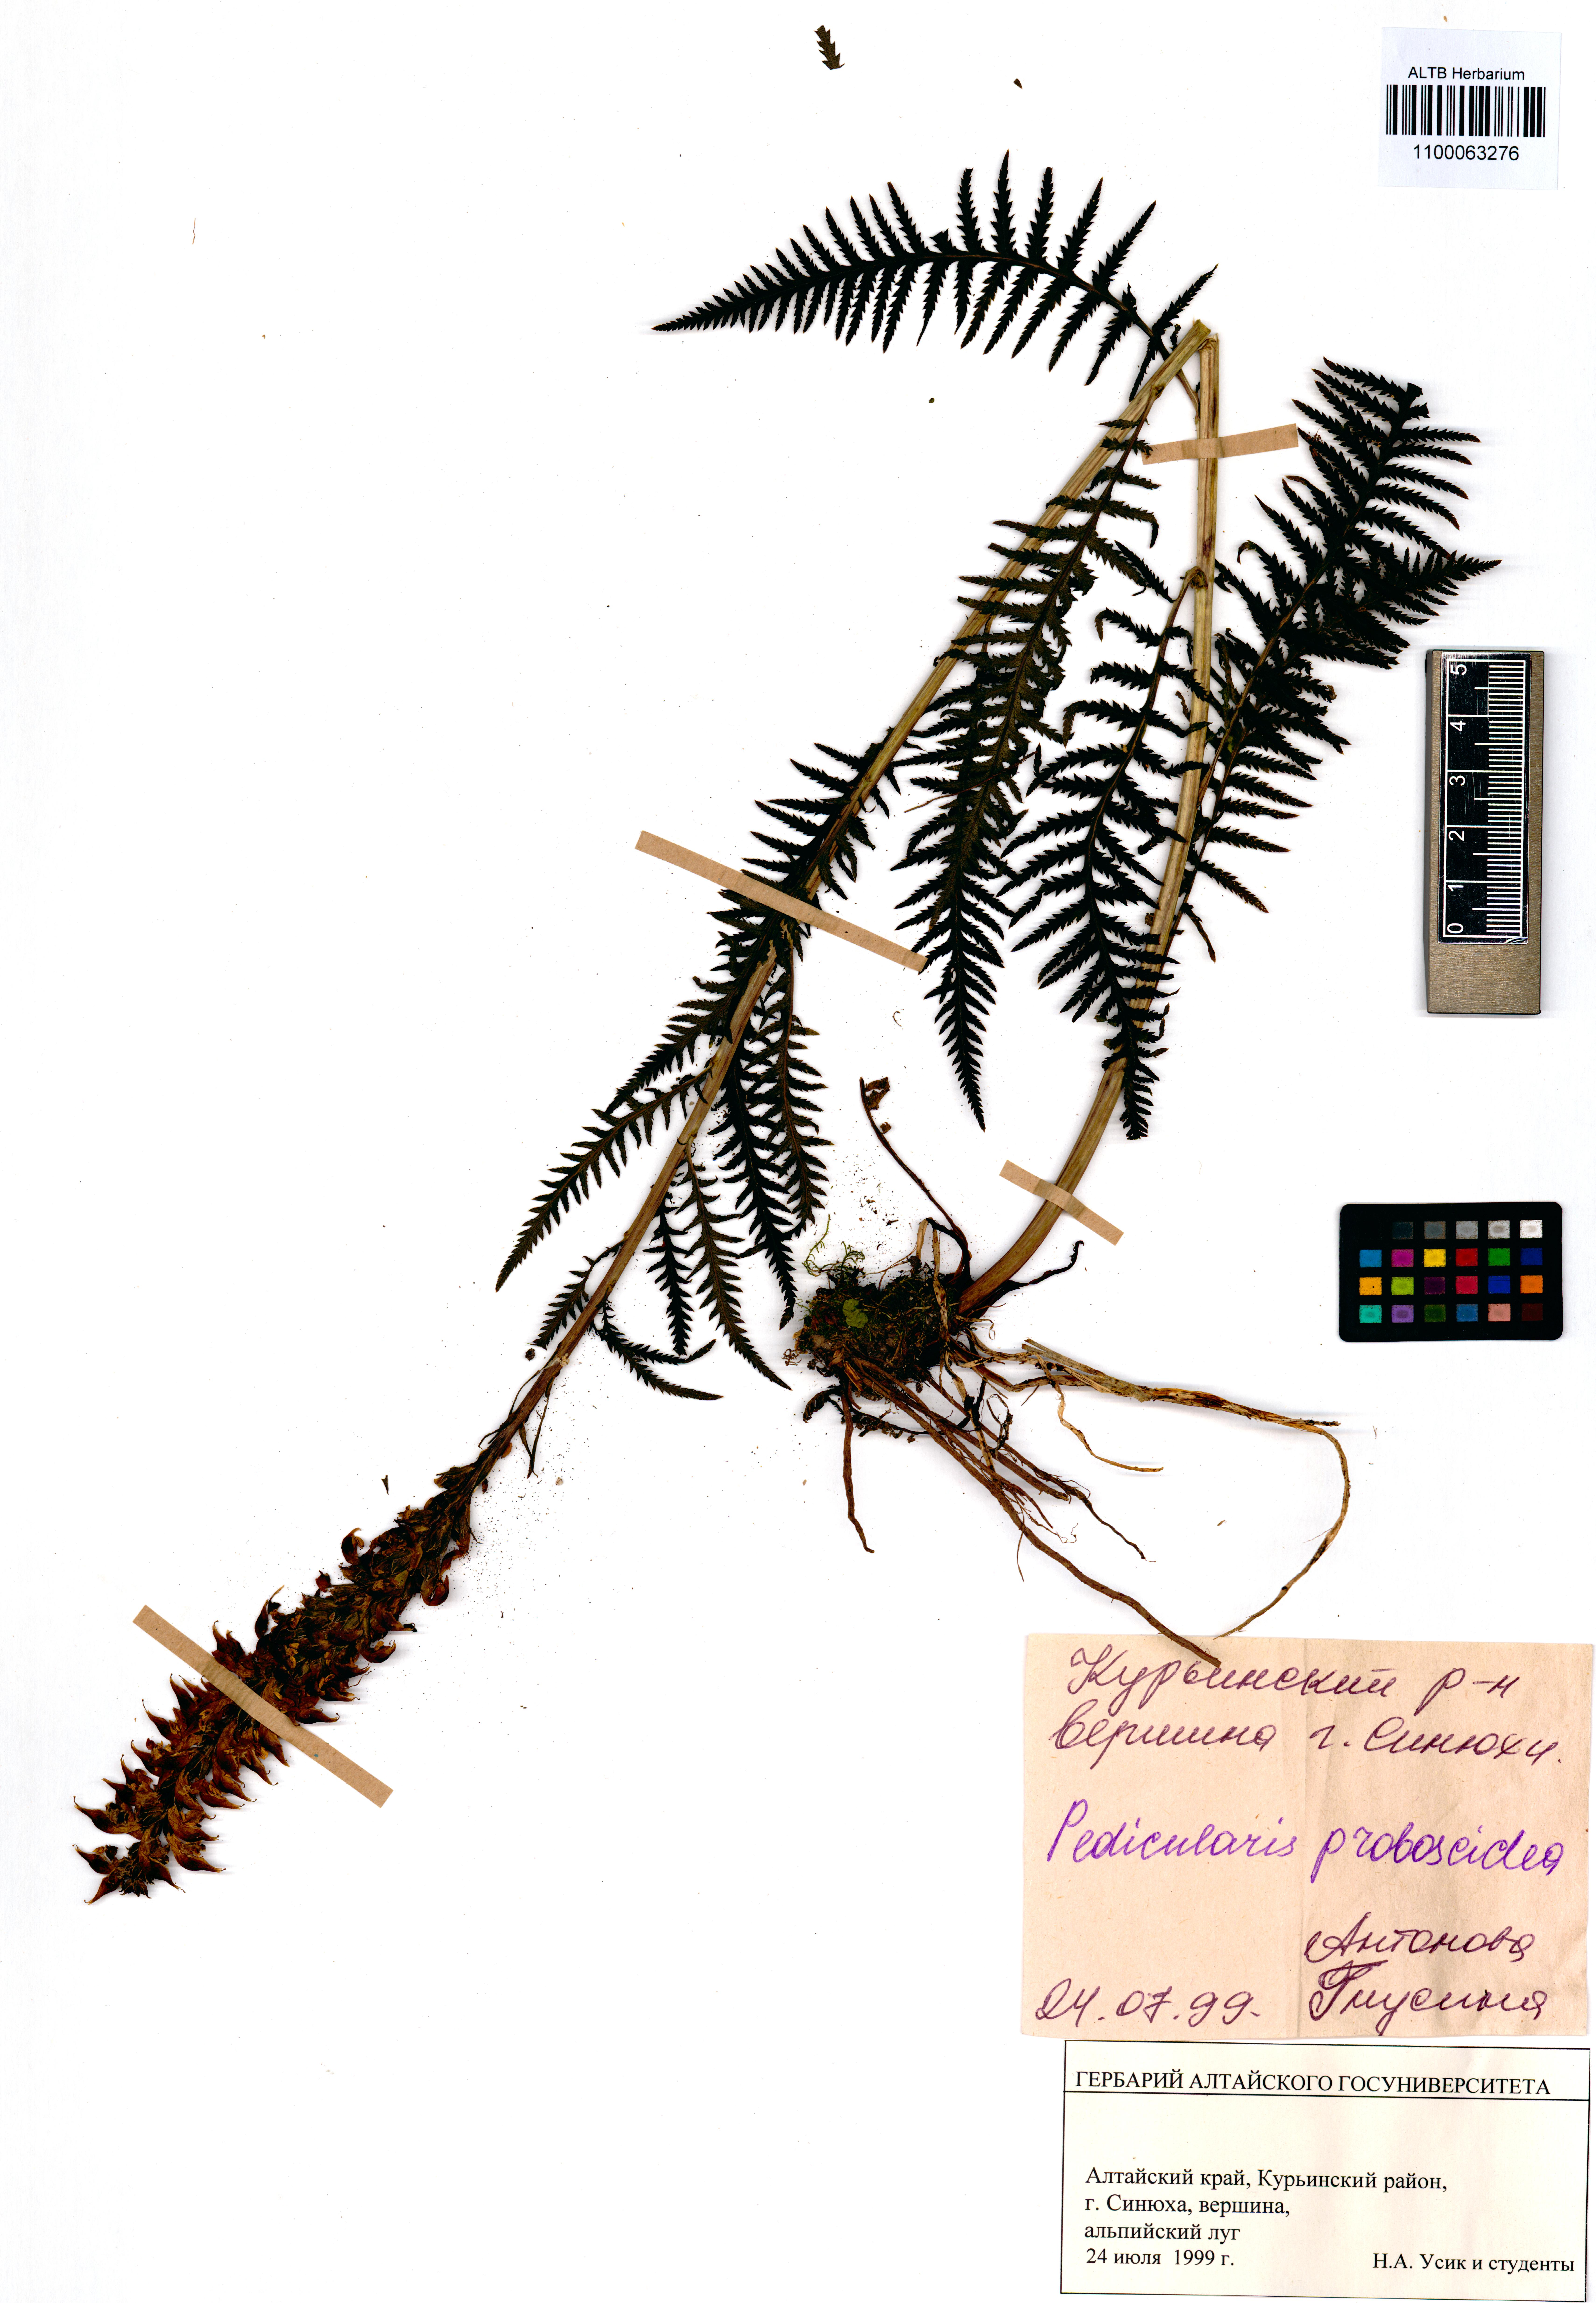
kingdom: Plantae
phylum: Tracheophyta
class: Magnoliopsida
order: Lamiales
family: Orobanchaceae
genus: Pedicularis
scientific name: Pedicularis cenisia
